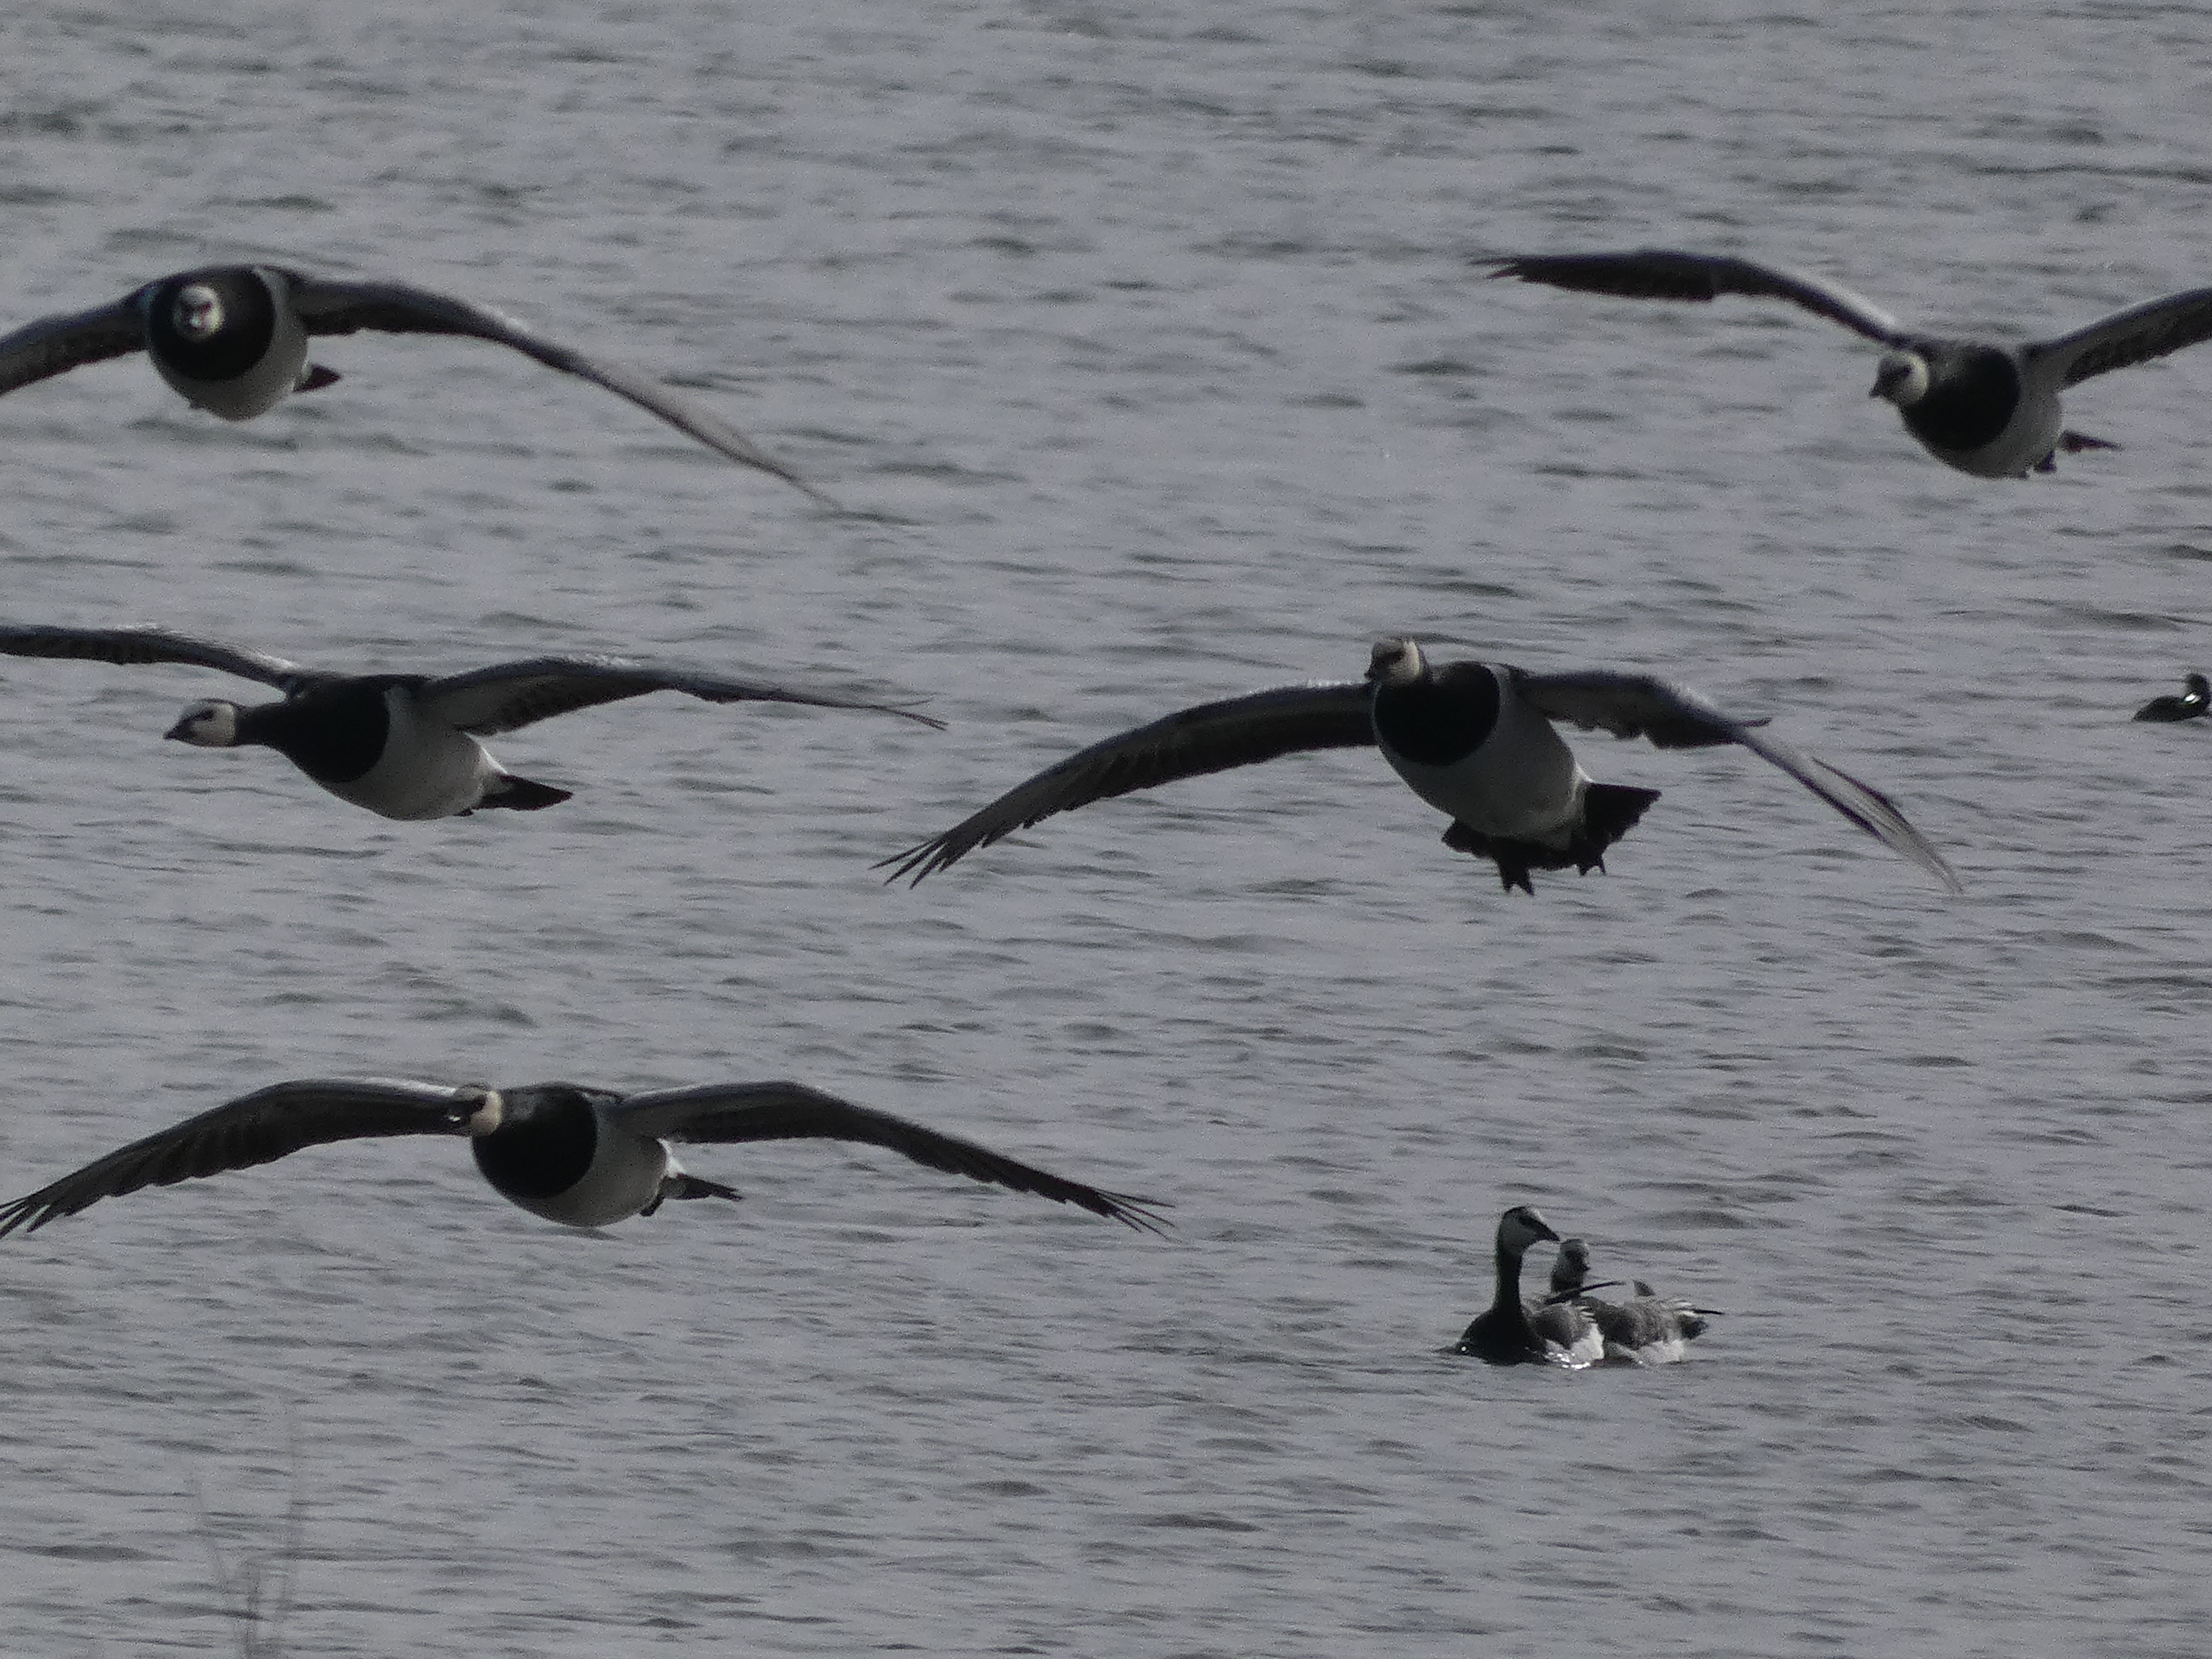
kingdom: Animalia
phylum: Chordata
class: Aves
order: Anseriformes
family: Anatidae
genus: Branta
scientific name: Branta leucopsis
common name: Bramgås
